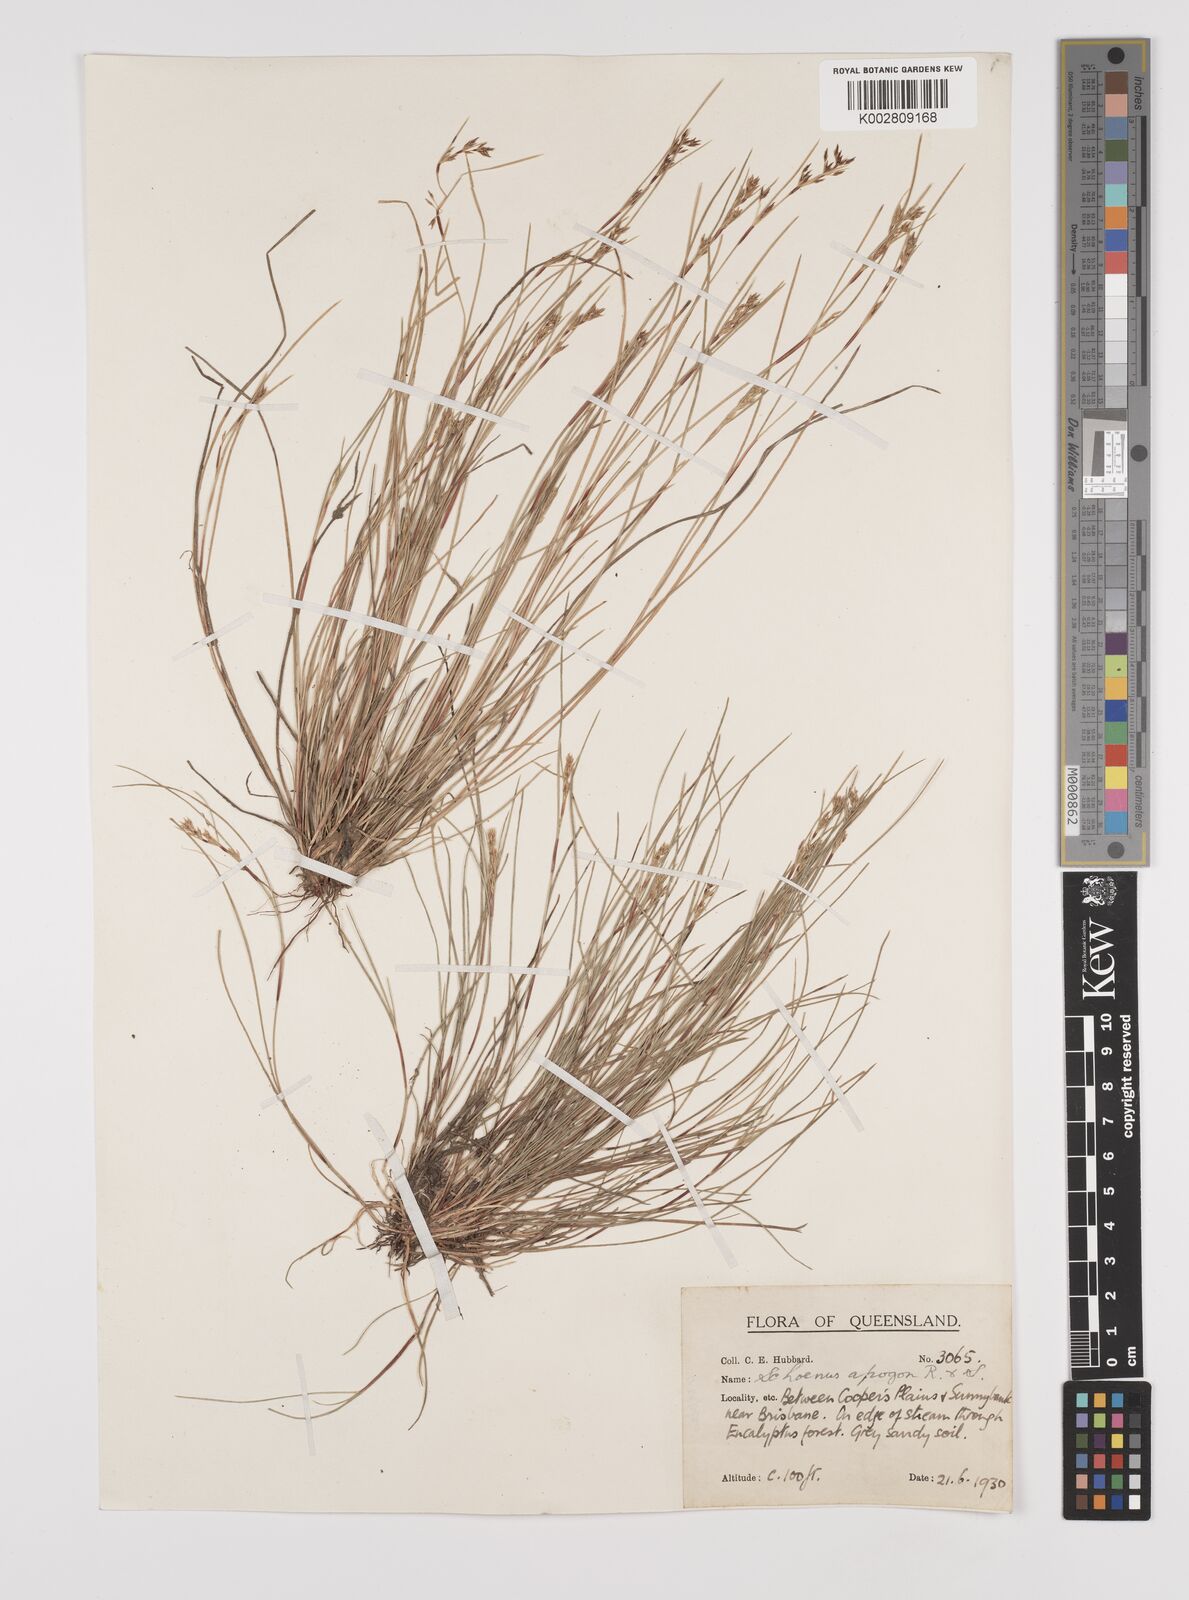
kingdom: Plantae
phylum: Tracheophyta
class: Liliopsida
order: Poales
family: Cyperaceae
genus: Schoenus
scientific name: Schoenus apogon
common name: Smooth bogrush
